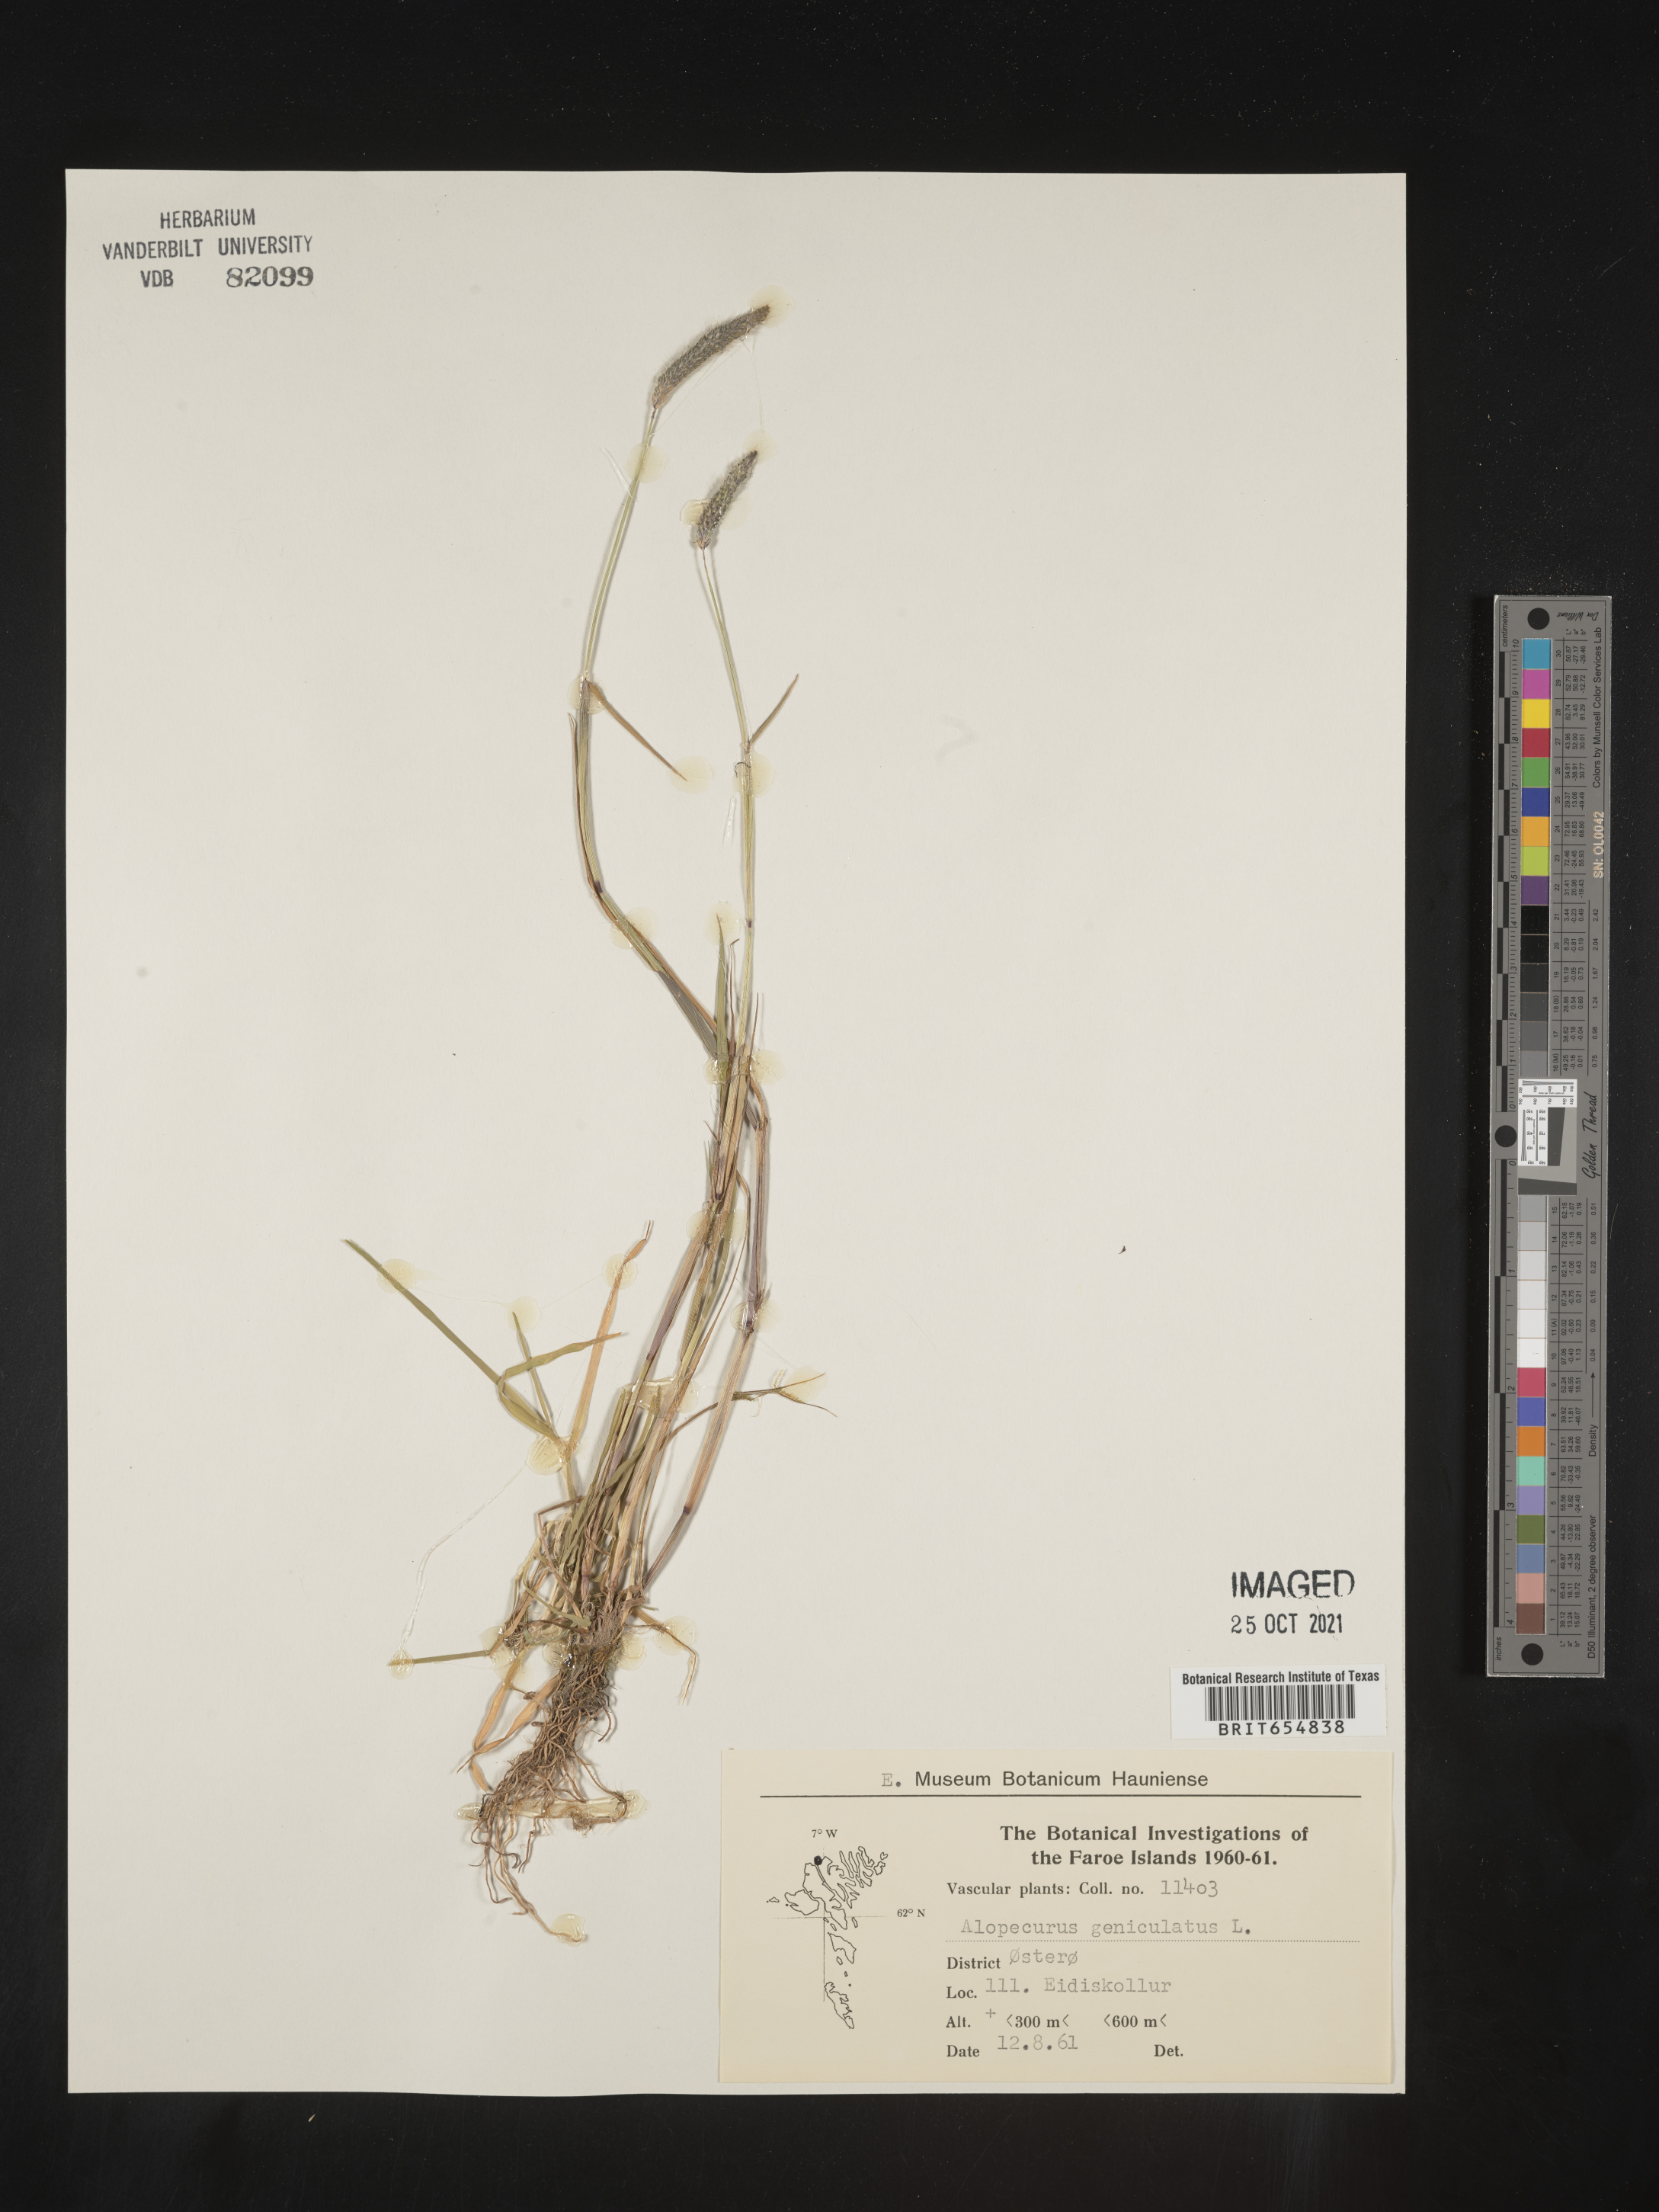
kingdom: Plantae
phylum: Tracheophyta
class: Liliopsida
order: Poales
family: Poaceae
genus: Alopecurus
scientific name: Alopecurus
